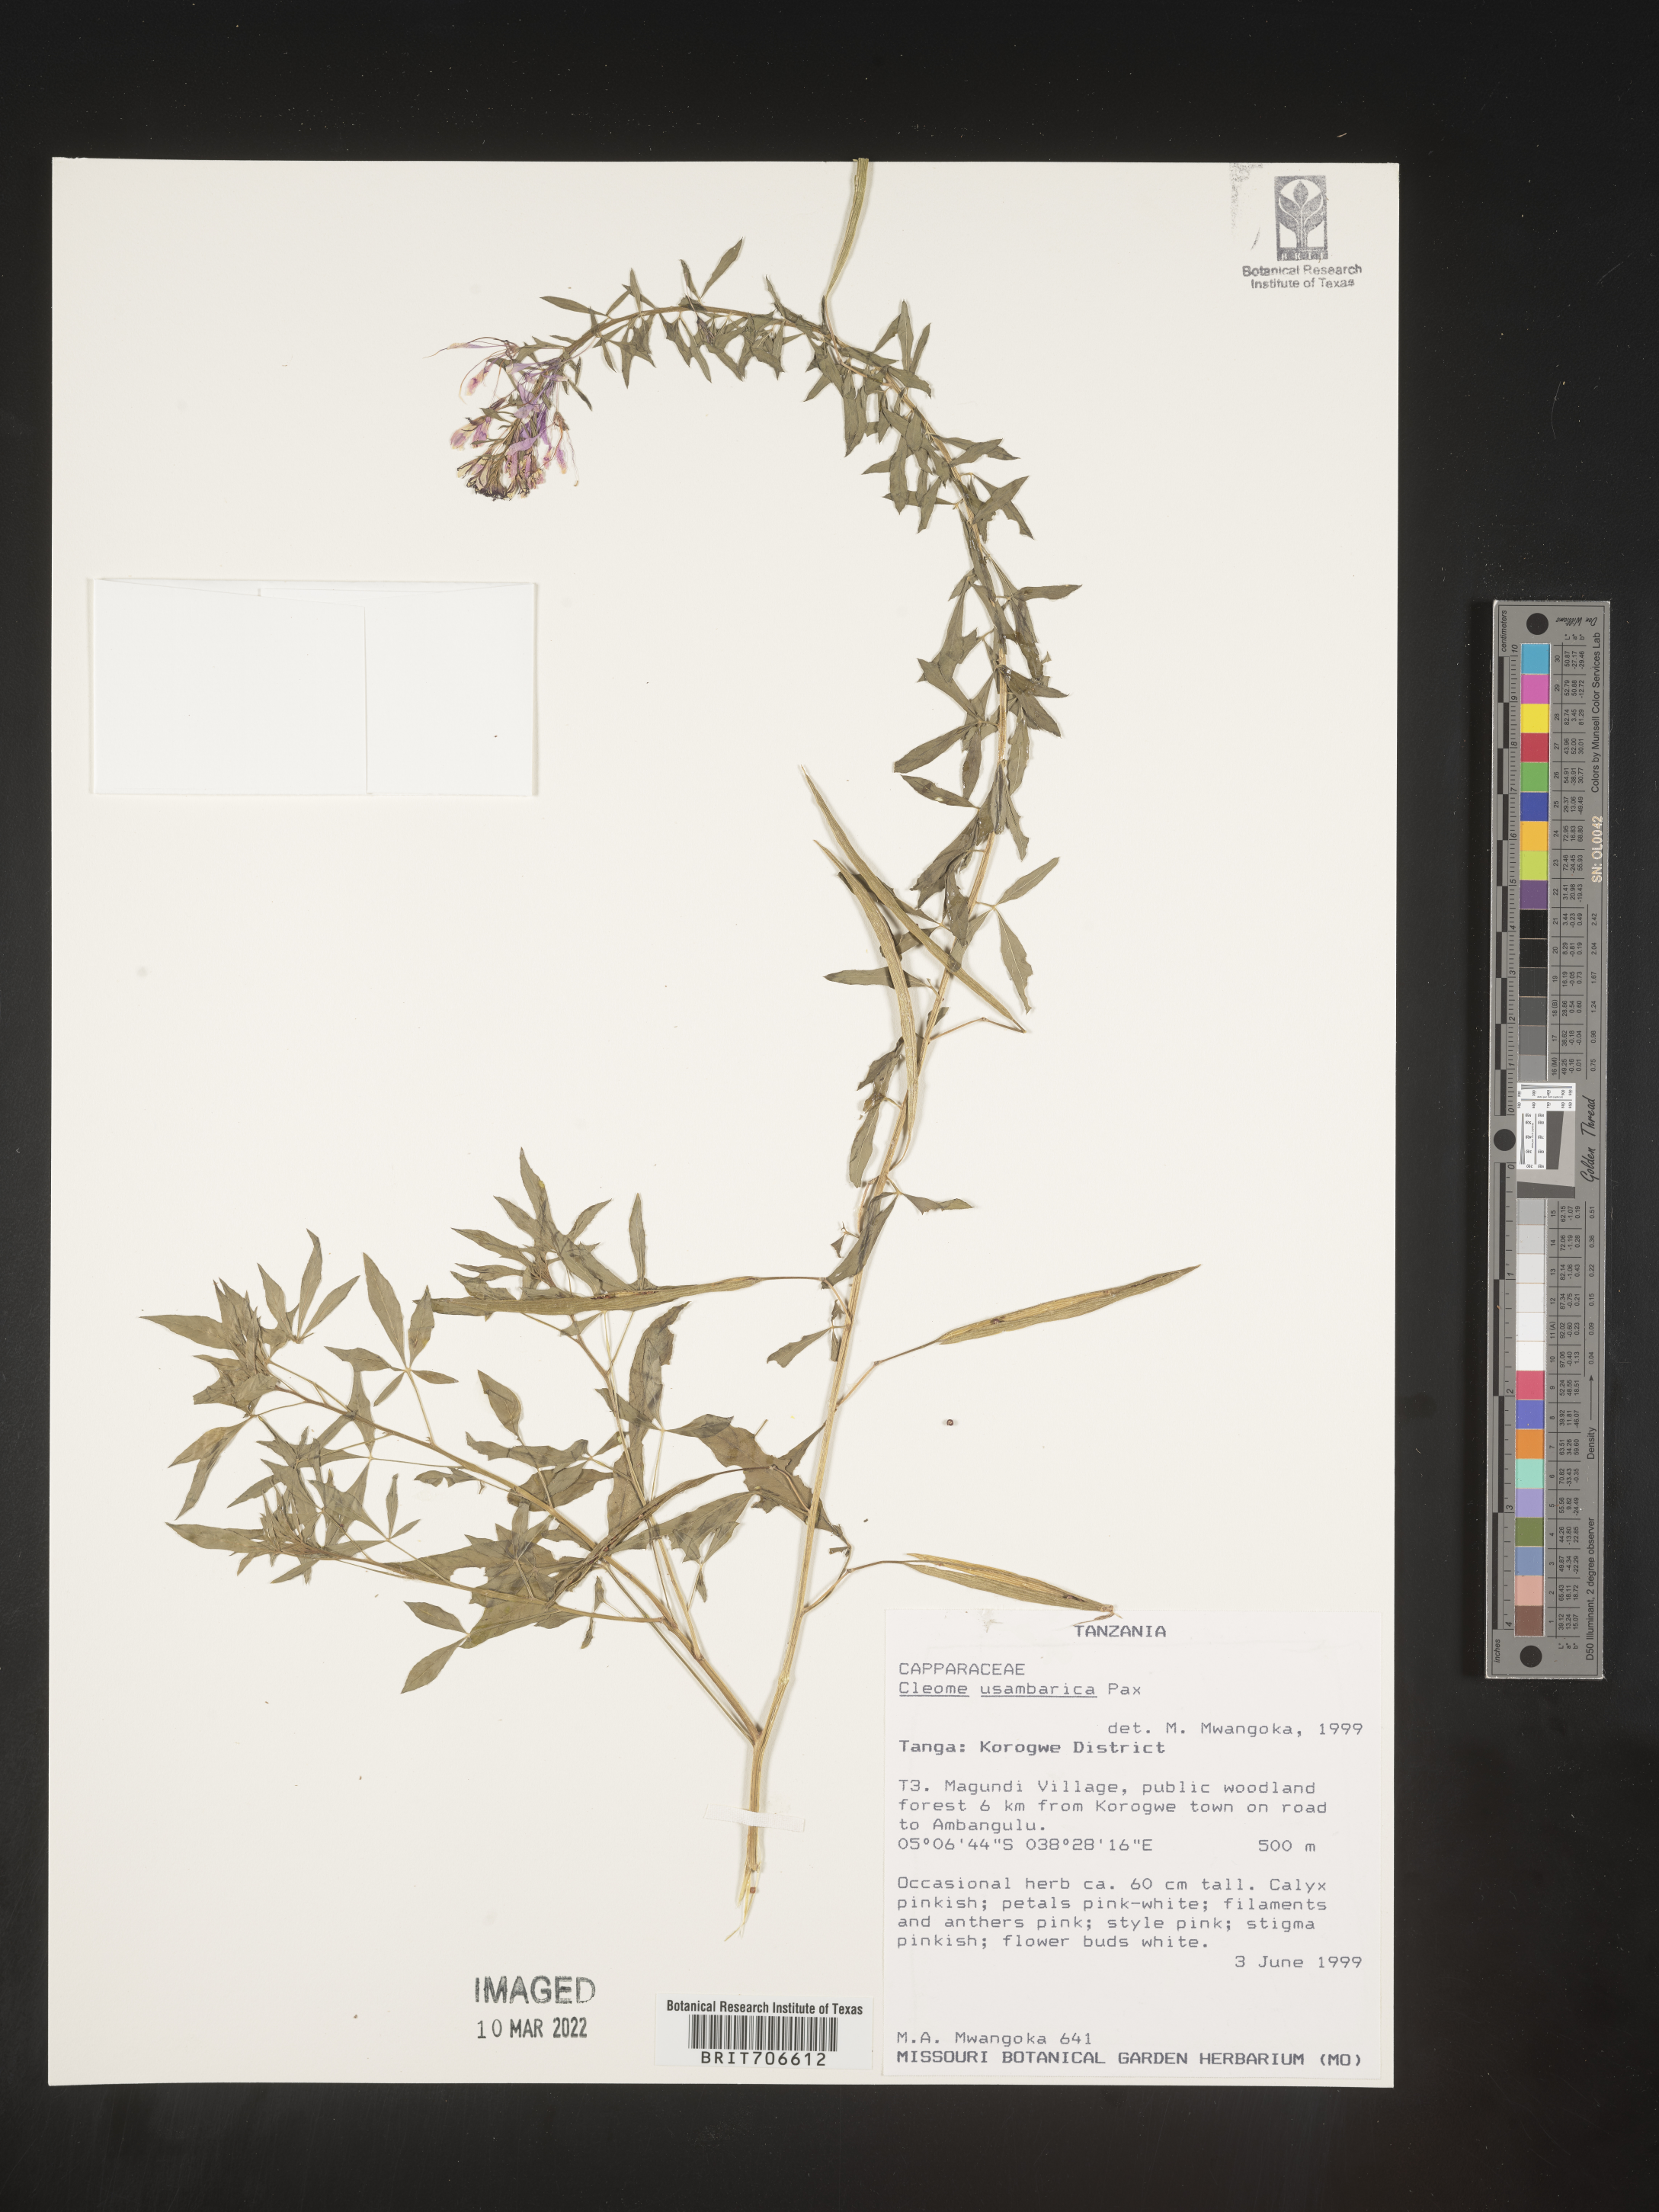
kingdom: Plantae
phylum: Tracheophyta
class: Magnoliopsida
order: Brassicales
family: Cleomaceae
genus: Cleome
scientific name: Cleome
